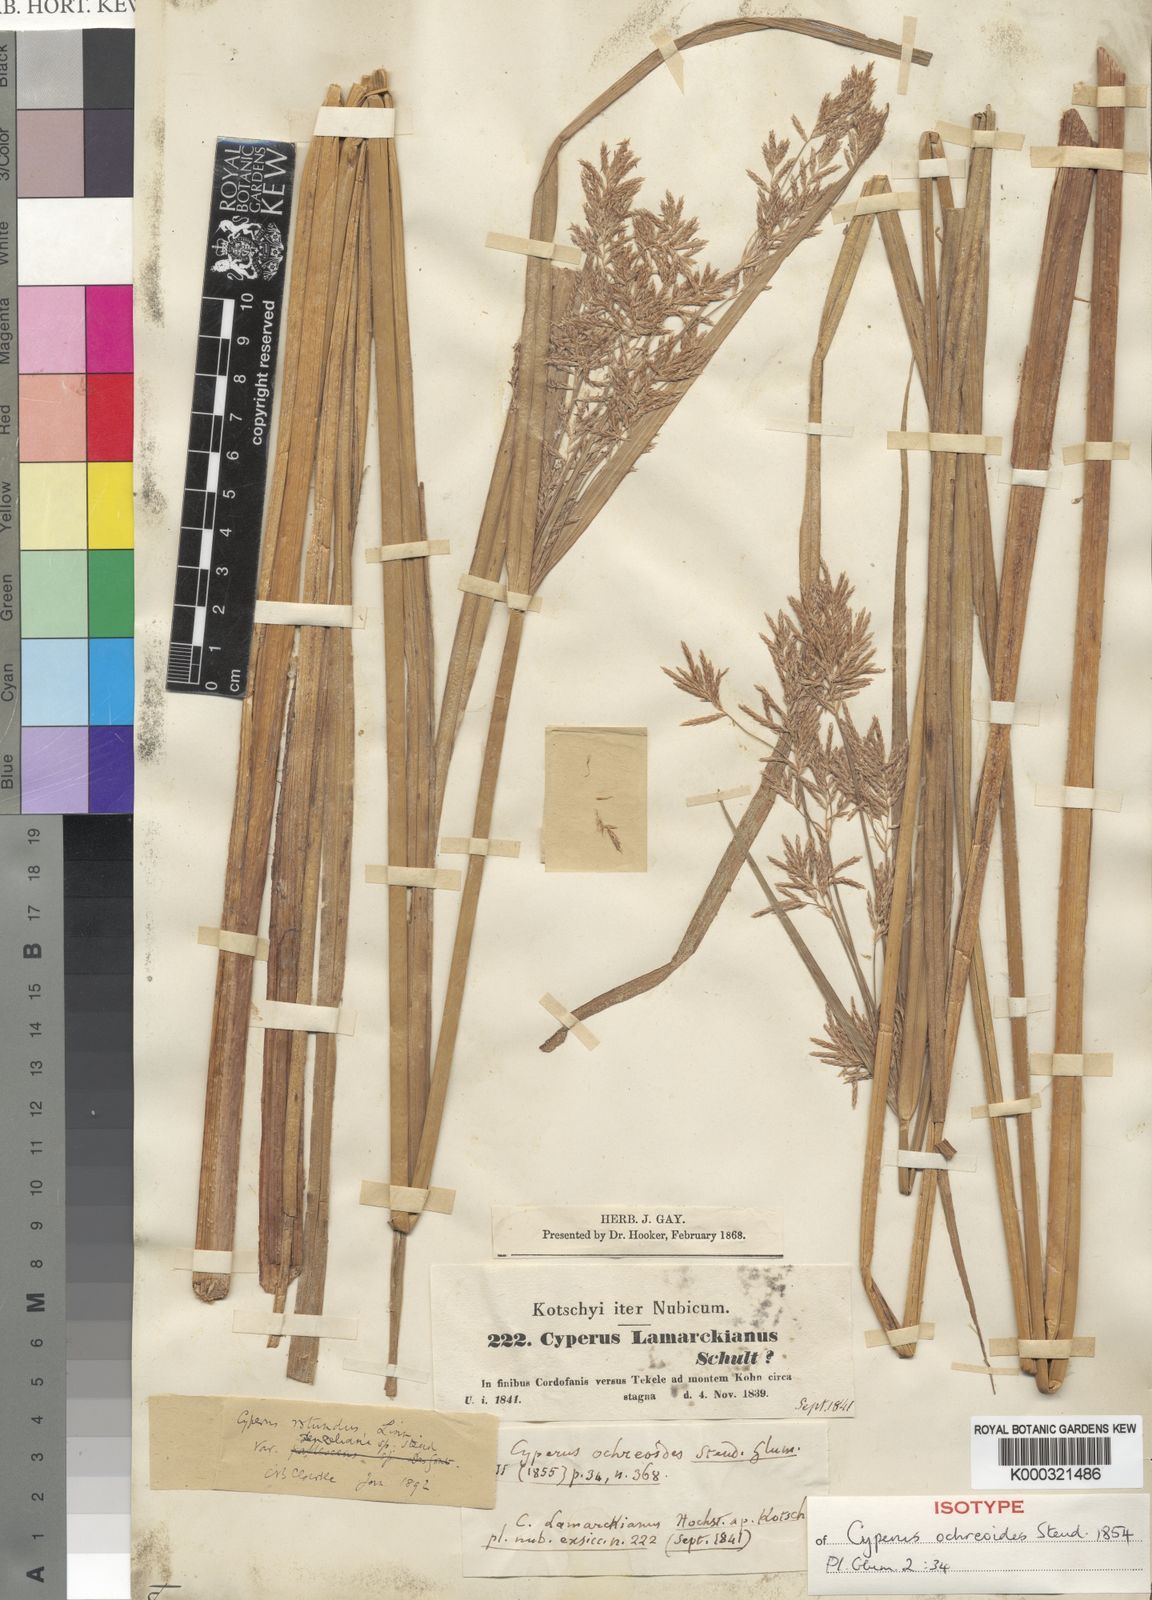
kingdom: Plantae
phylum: Tracheophyta
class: Liliopsida
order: Poales
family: Cyperaceae
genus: Cyperus
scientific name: Cyperus longus
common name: Galingale
